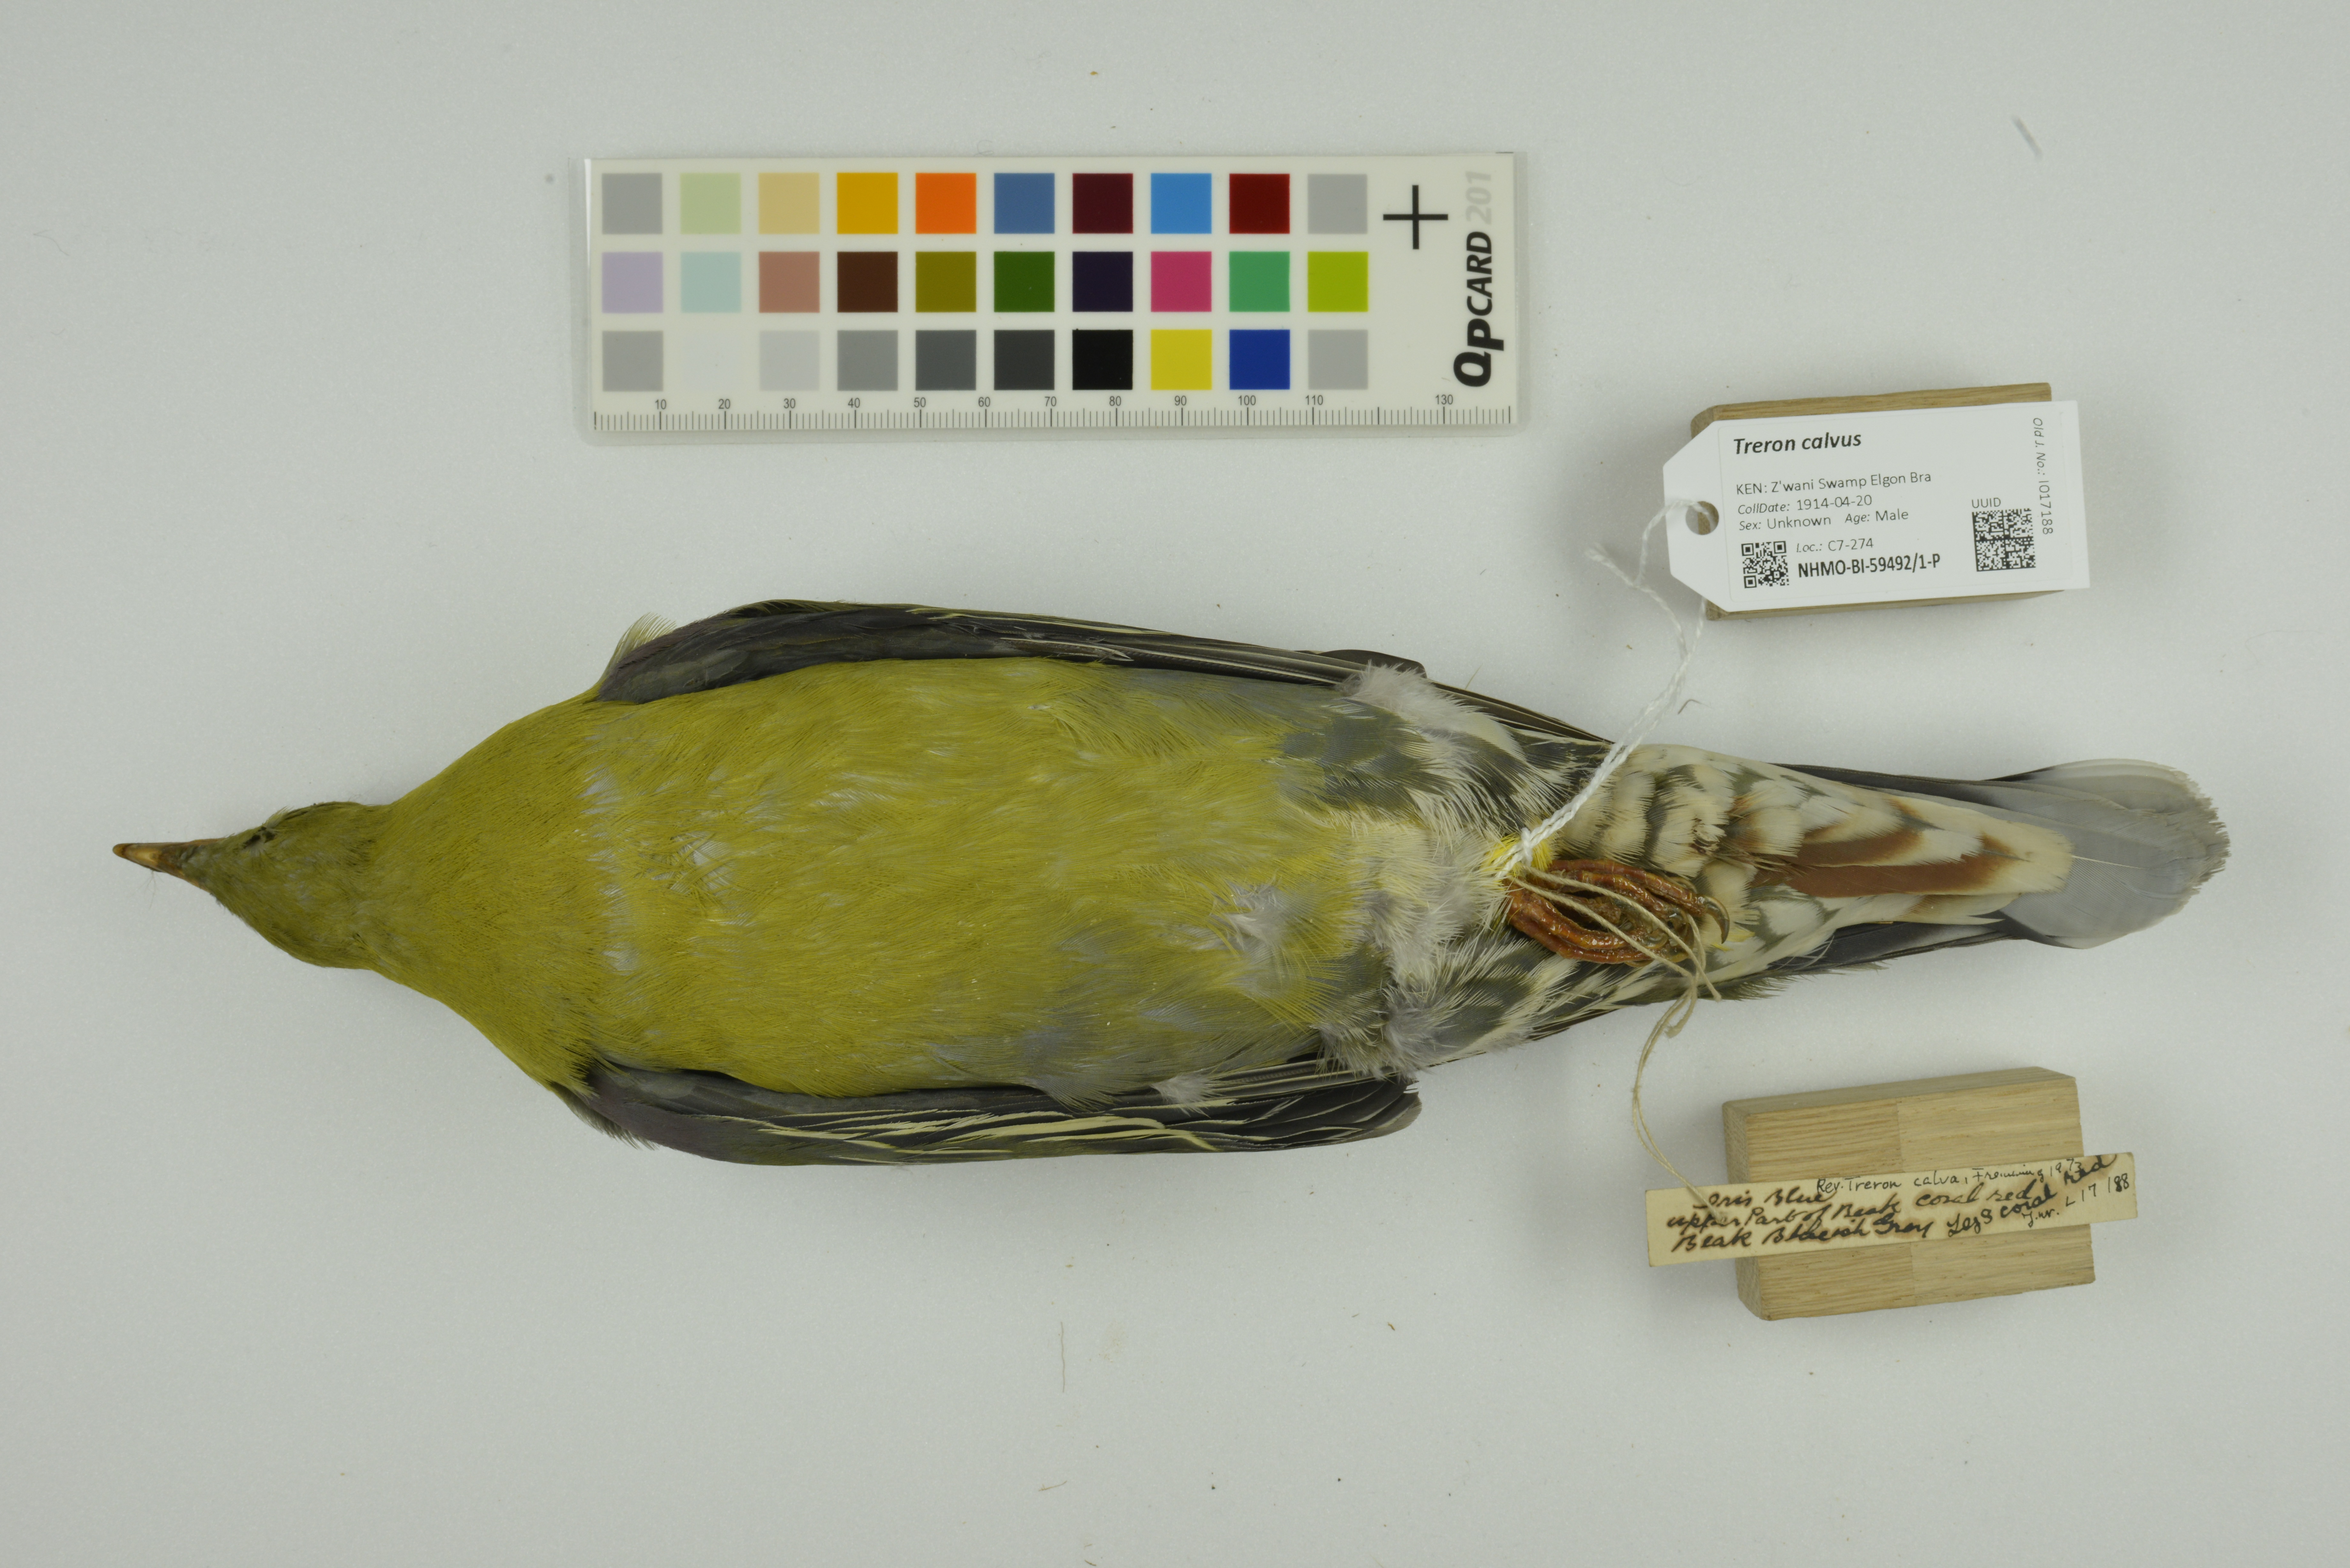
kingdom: Animalia
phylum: Chordata
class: Aves
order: Columbiformes
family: Columbidae
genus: Treron
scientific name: Treron calvus
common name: African green pigeon
